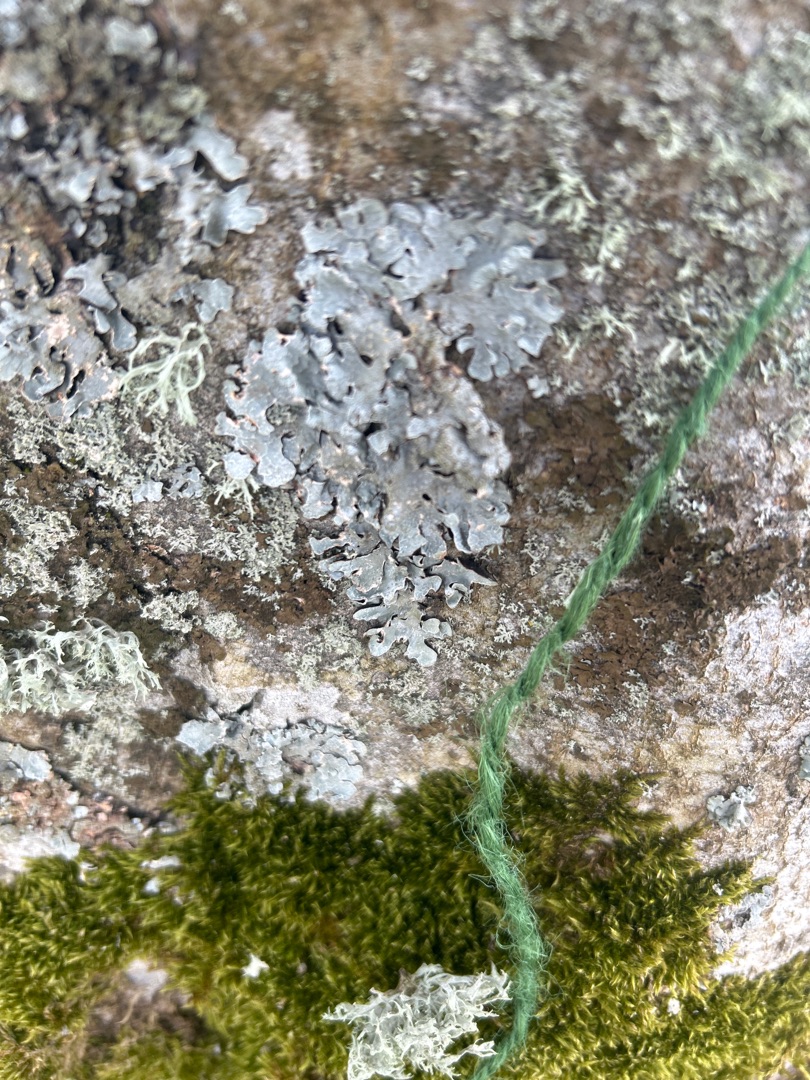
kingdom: Fungi
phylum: Ascomycota
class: Lecanoromycetes
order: Lecanorales
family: Parmeliaceae
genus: Parmelia
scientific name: Parmelia sulcata
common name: Rynket skållav
